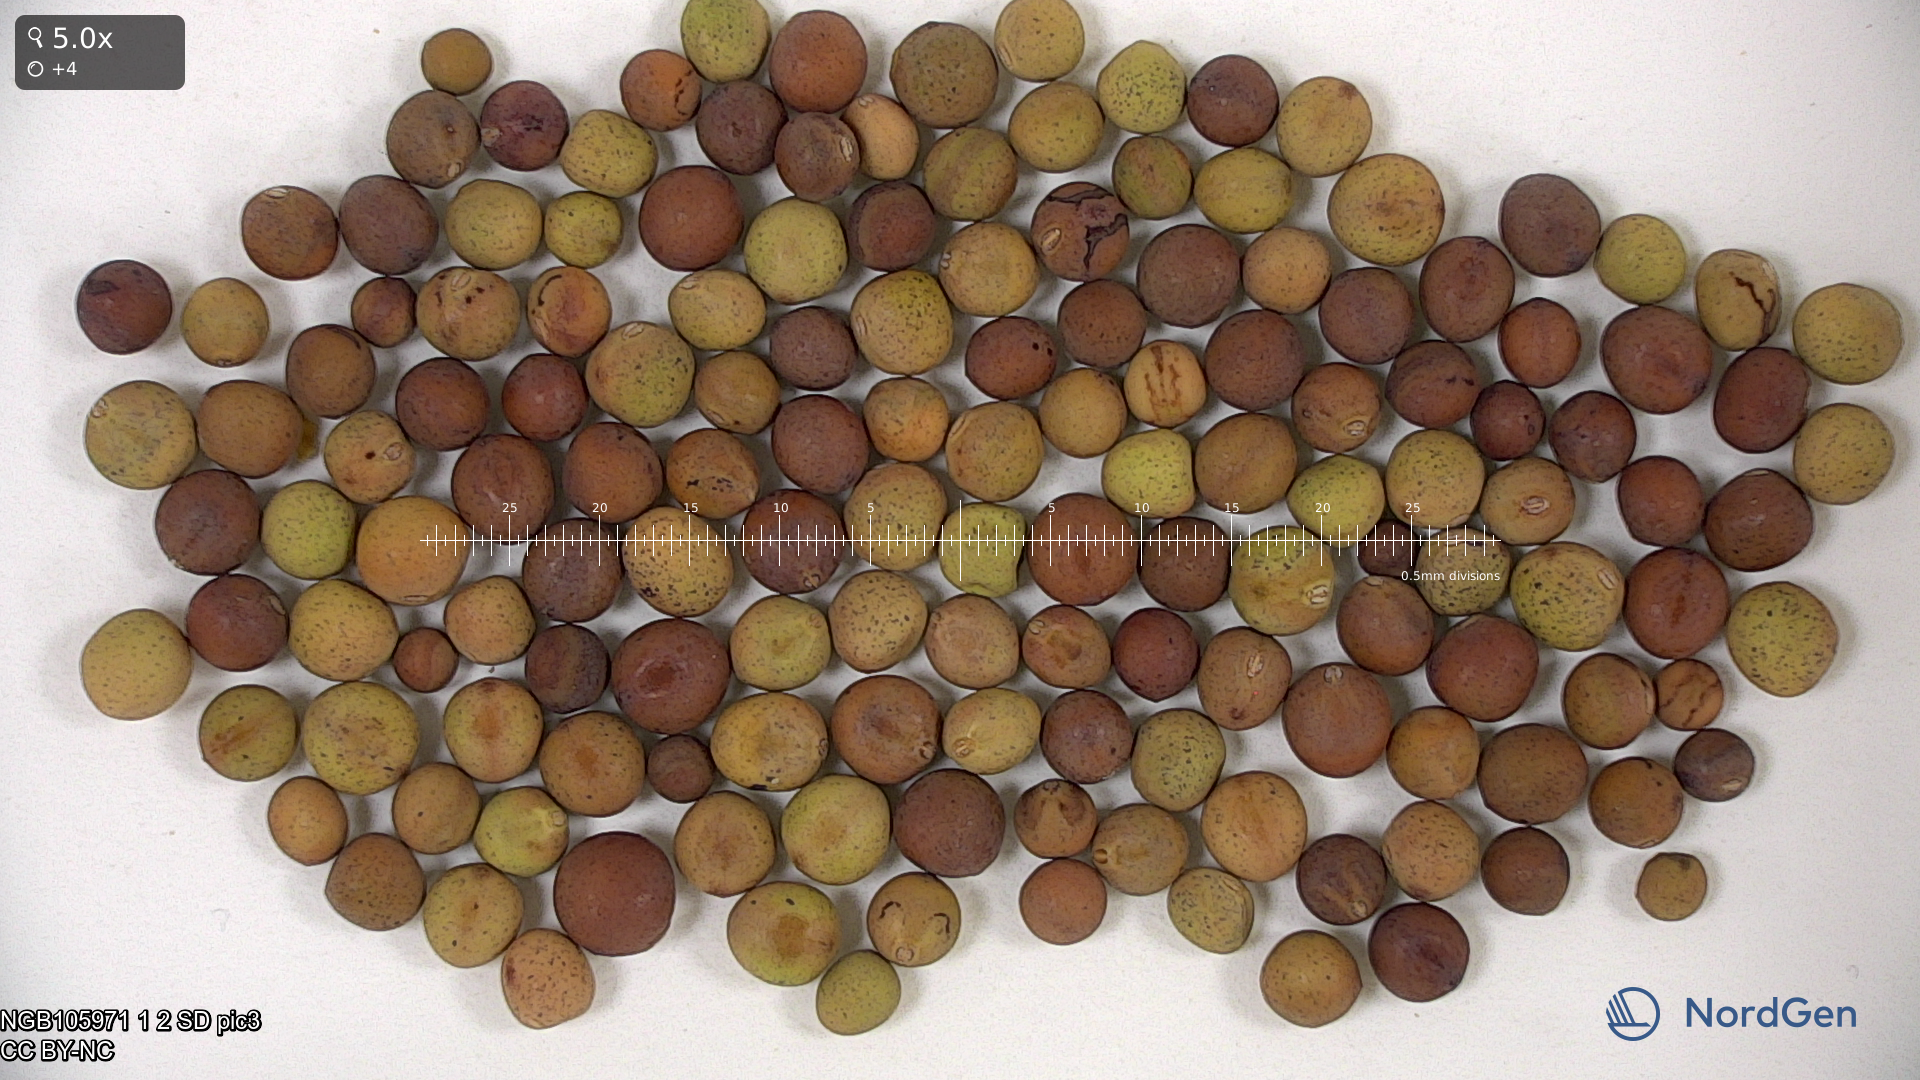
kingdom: Plantae
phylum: Tracheophyta
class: Magnoliopsida
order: Fabales
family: Fabaceae
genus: Lathyrus
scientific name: Lathyrus oleraceus
